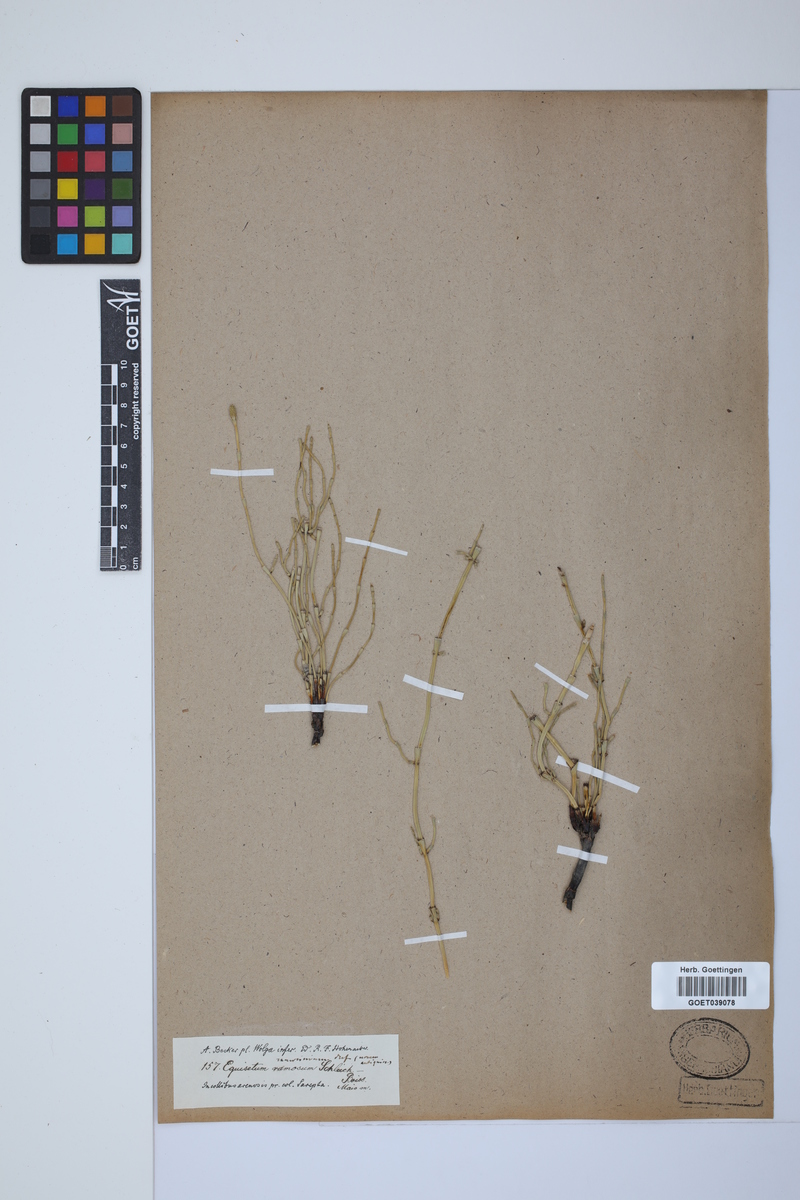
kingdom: Plantae
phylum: Tracheophyta
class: Polypodiopsida
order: Equisetales
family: Equisetaceae
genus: Equisetum
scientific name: Equisetum giganteum
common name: Giant horsetail
